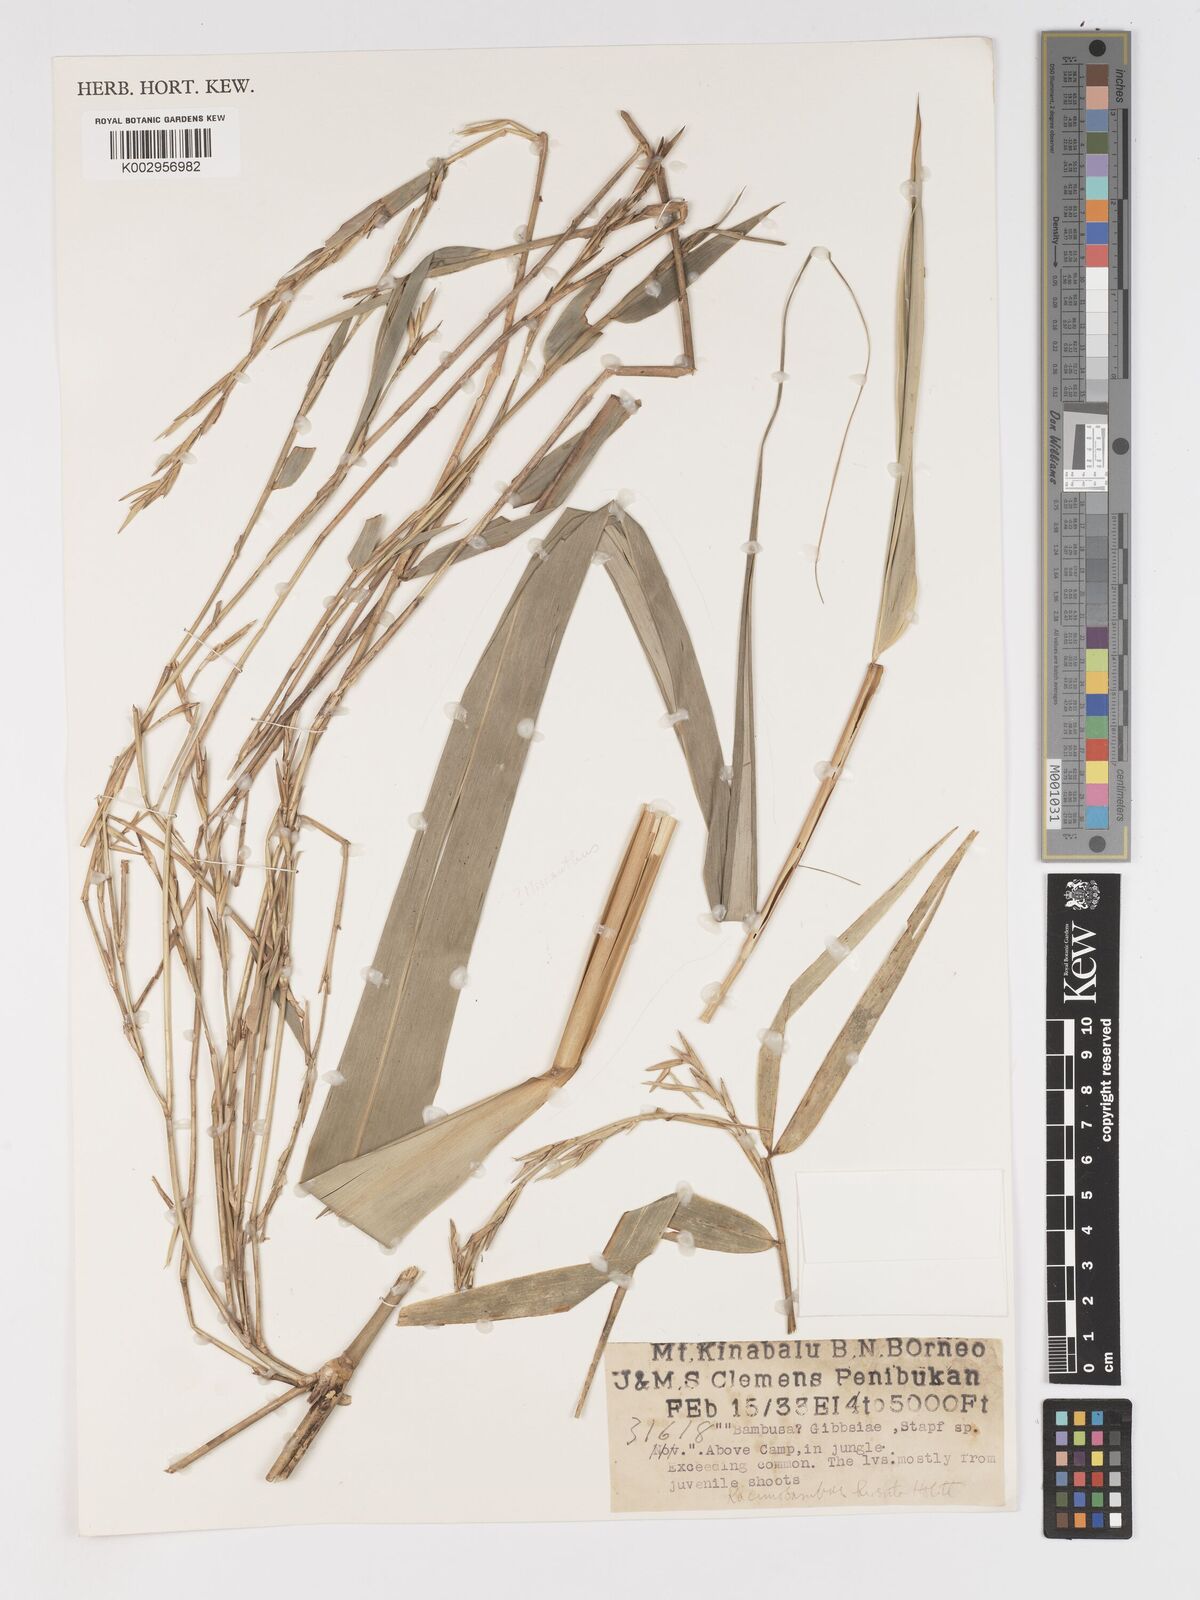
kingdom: Plantae
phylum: Tracheophyta
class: Liliopsida
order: Poales
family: Poaceae
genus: Racemobambos
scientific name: Racemobambos hirsuta
